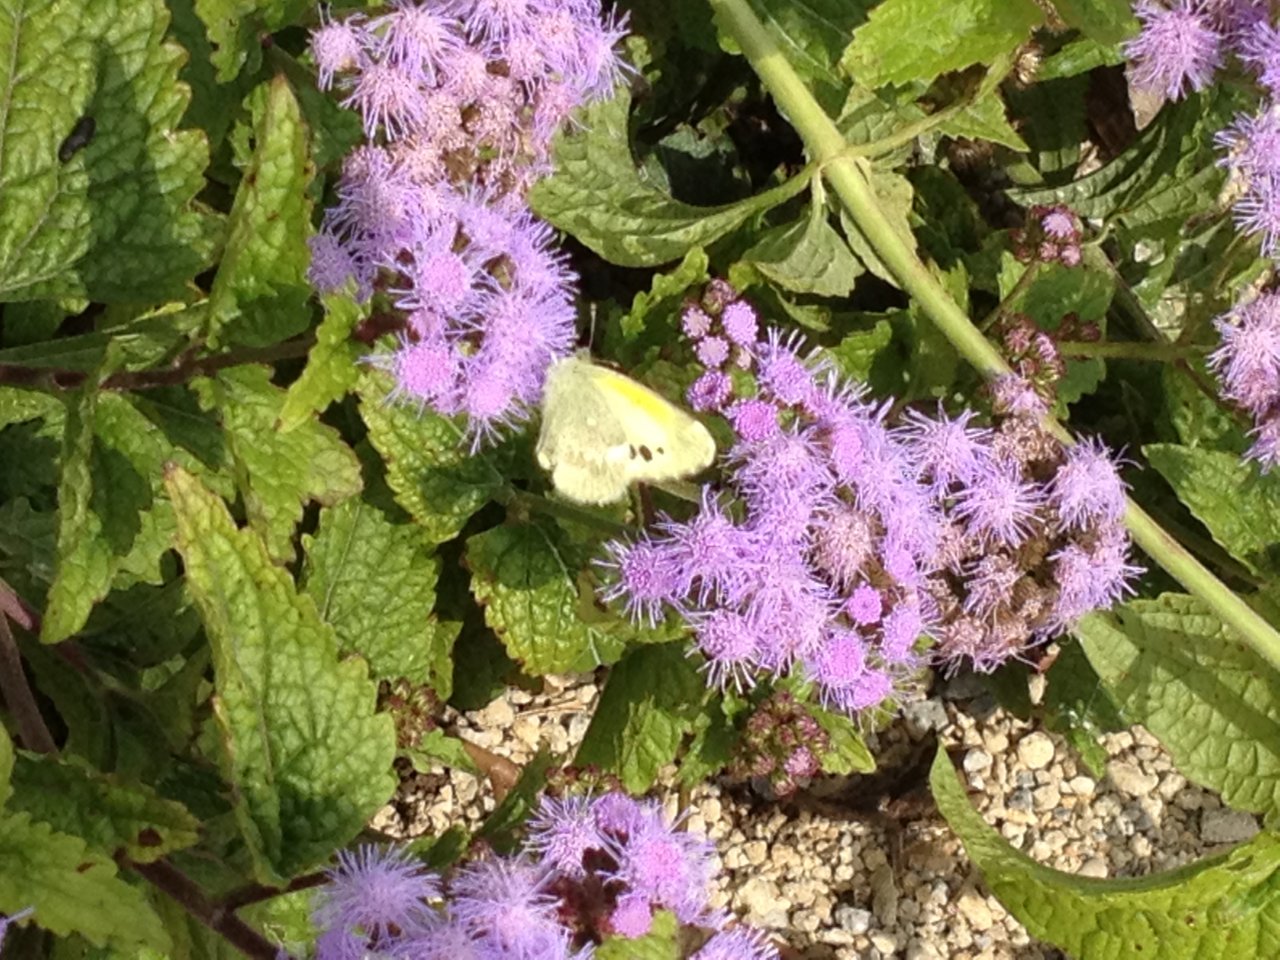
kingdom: Animalia
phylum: Arthropoda
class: Insecta
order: Lepidoptera
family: Pieridae
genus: Nathalis
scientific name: Nathalis iole
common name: Dainty Sulphur
